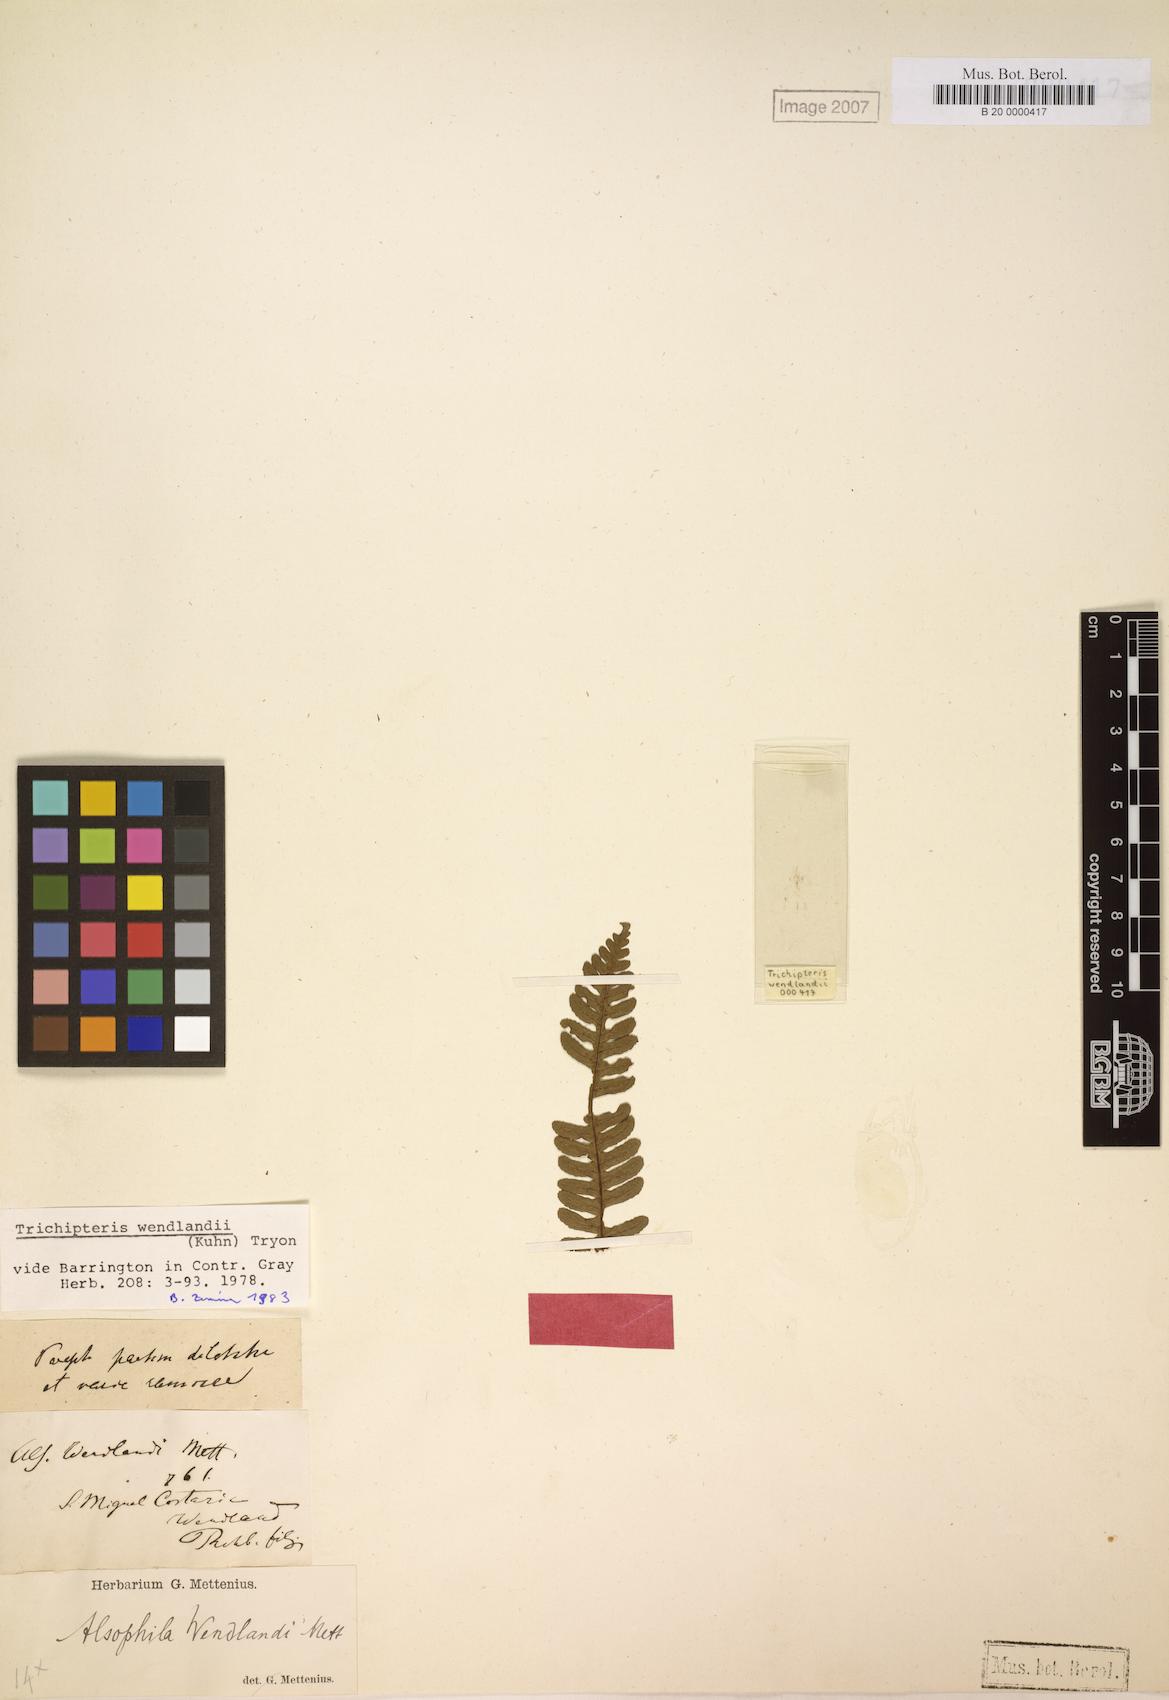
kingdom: Plantae
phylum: Tracheophyta
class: Polypodiopsida
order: Cyatheales
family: Cyatheaceae
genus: Cyathea
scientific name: Cyathea wendlandii
